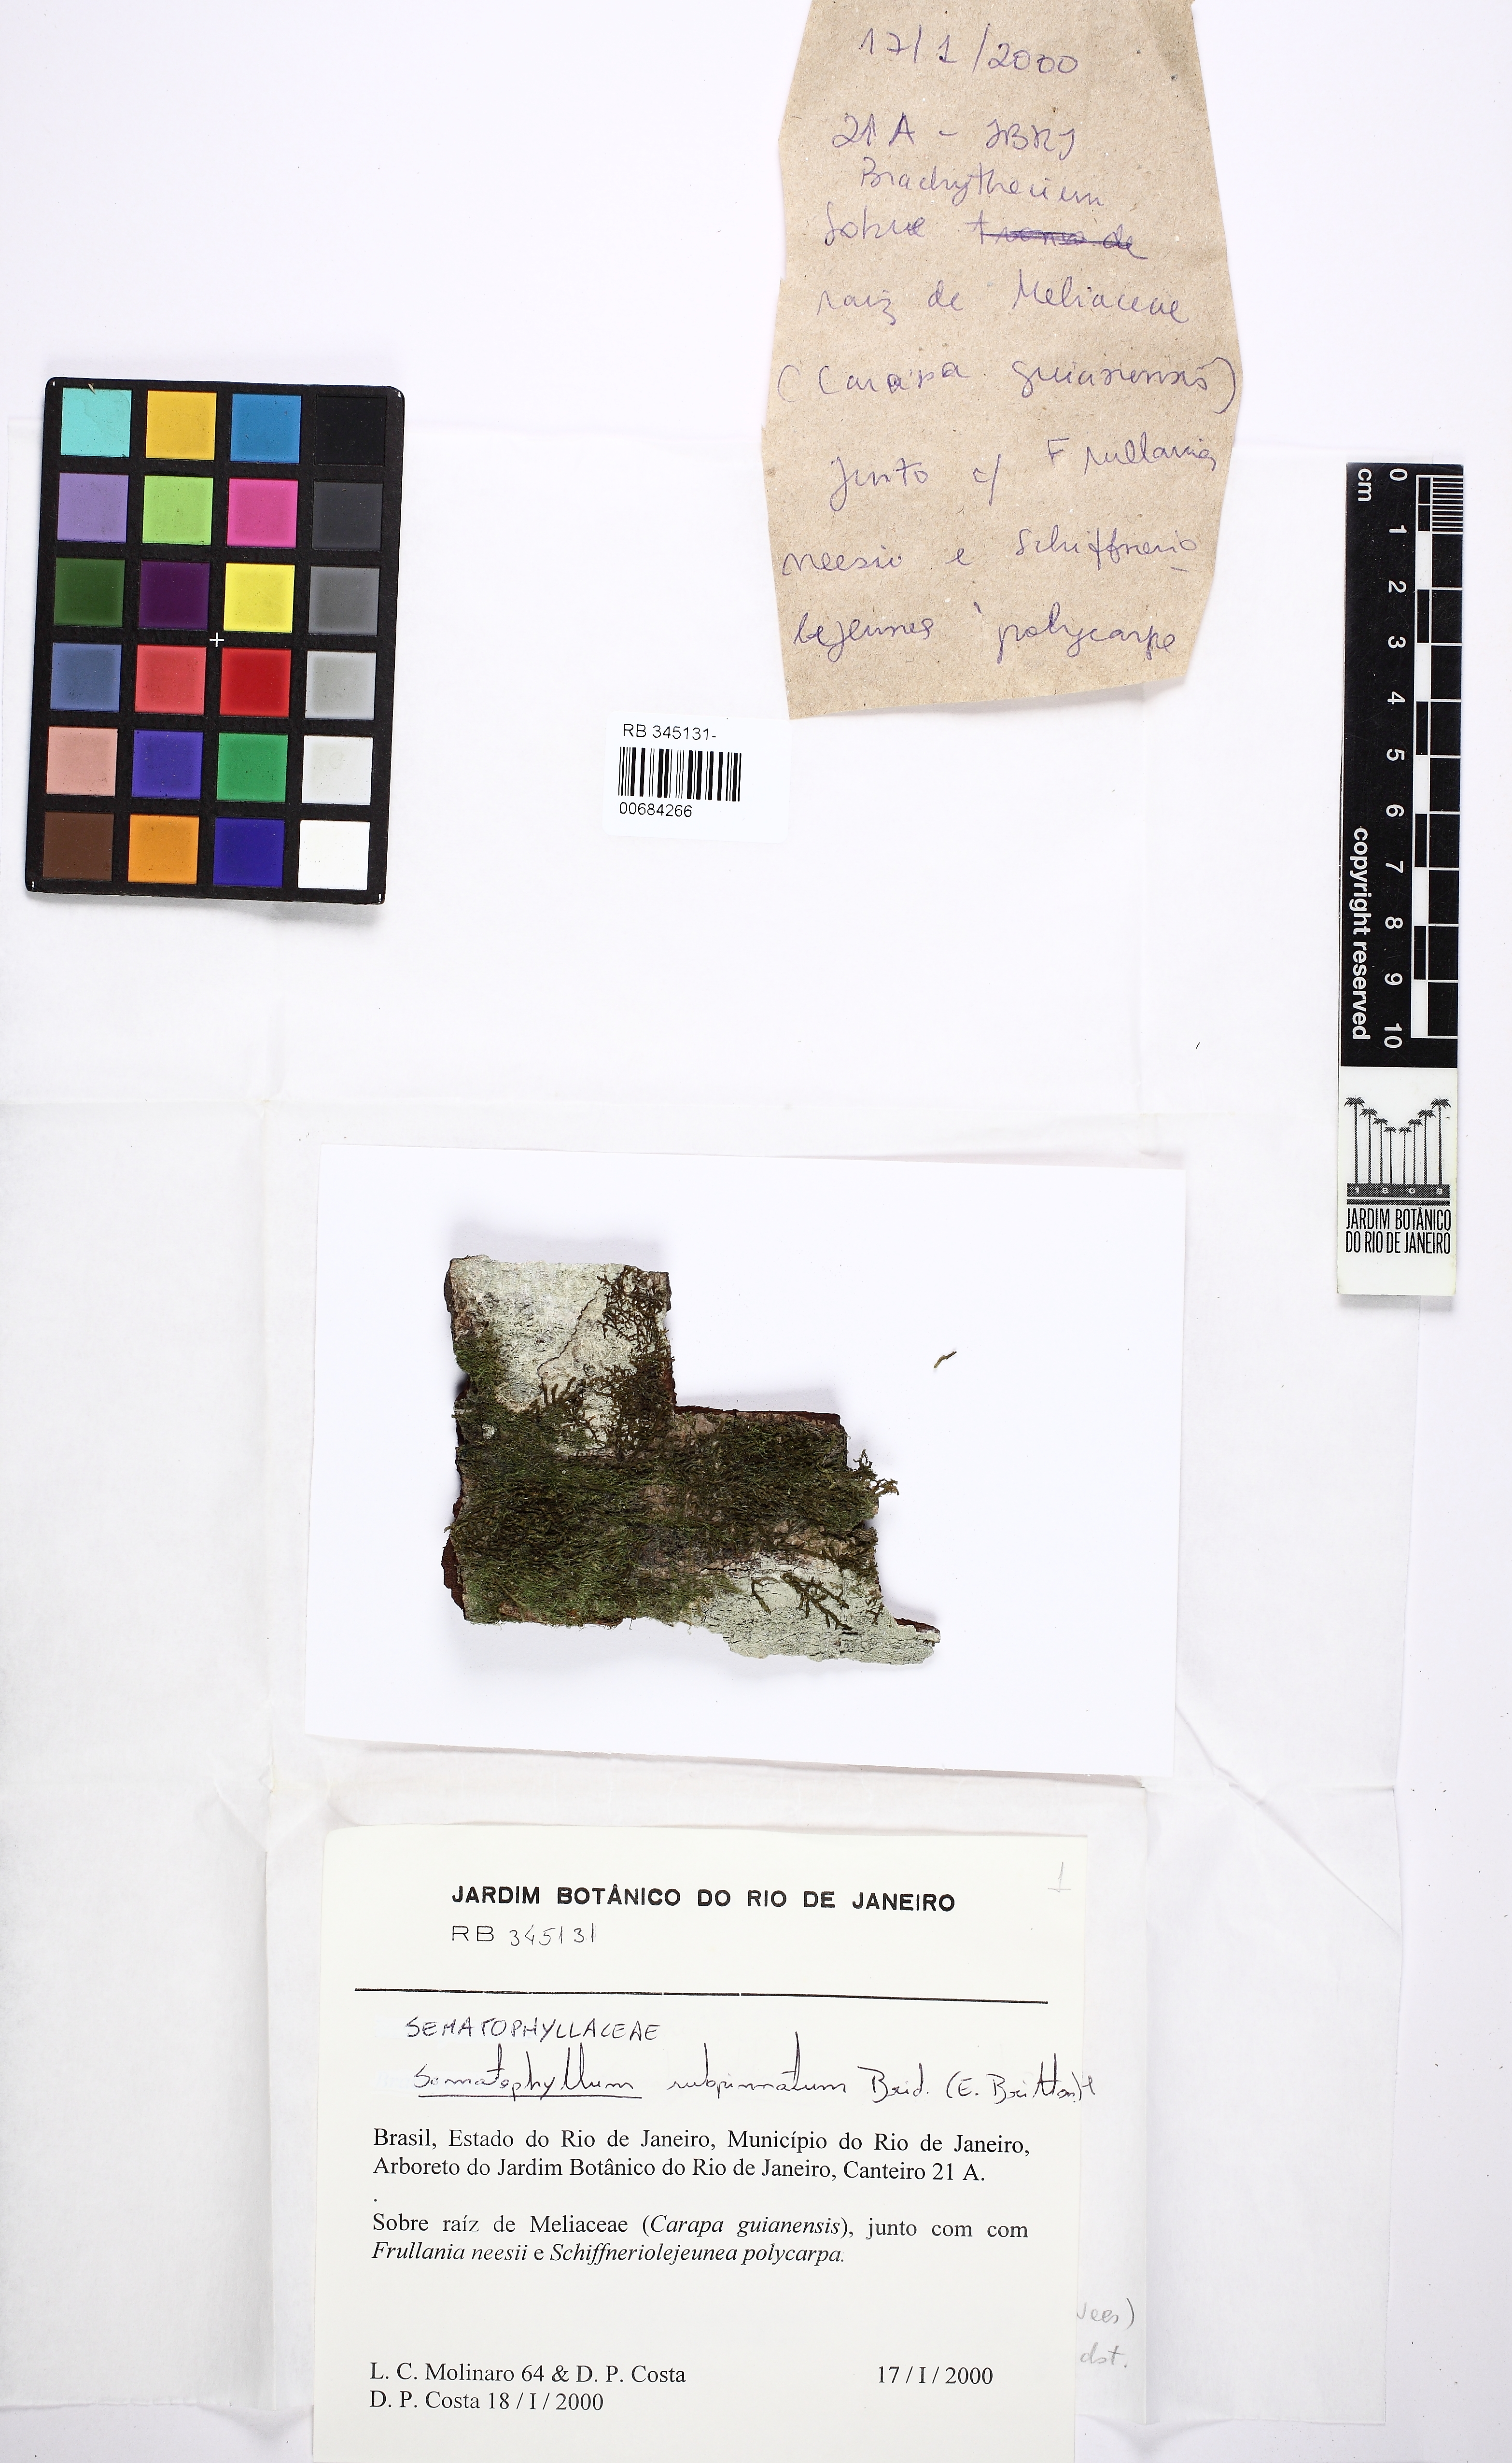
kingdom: Plantae
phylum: Bryophyta
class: Bryopsida
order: Hypnales
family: Sematophyllaceae
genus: Brittonodoxa
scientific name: Brittonodoxa subpinnata
